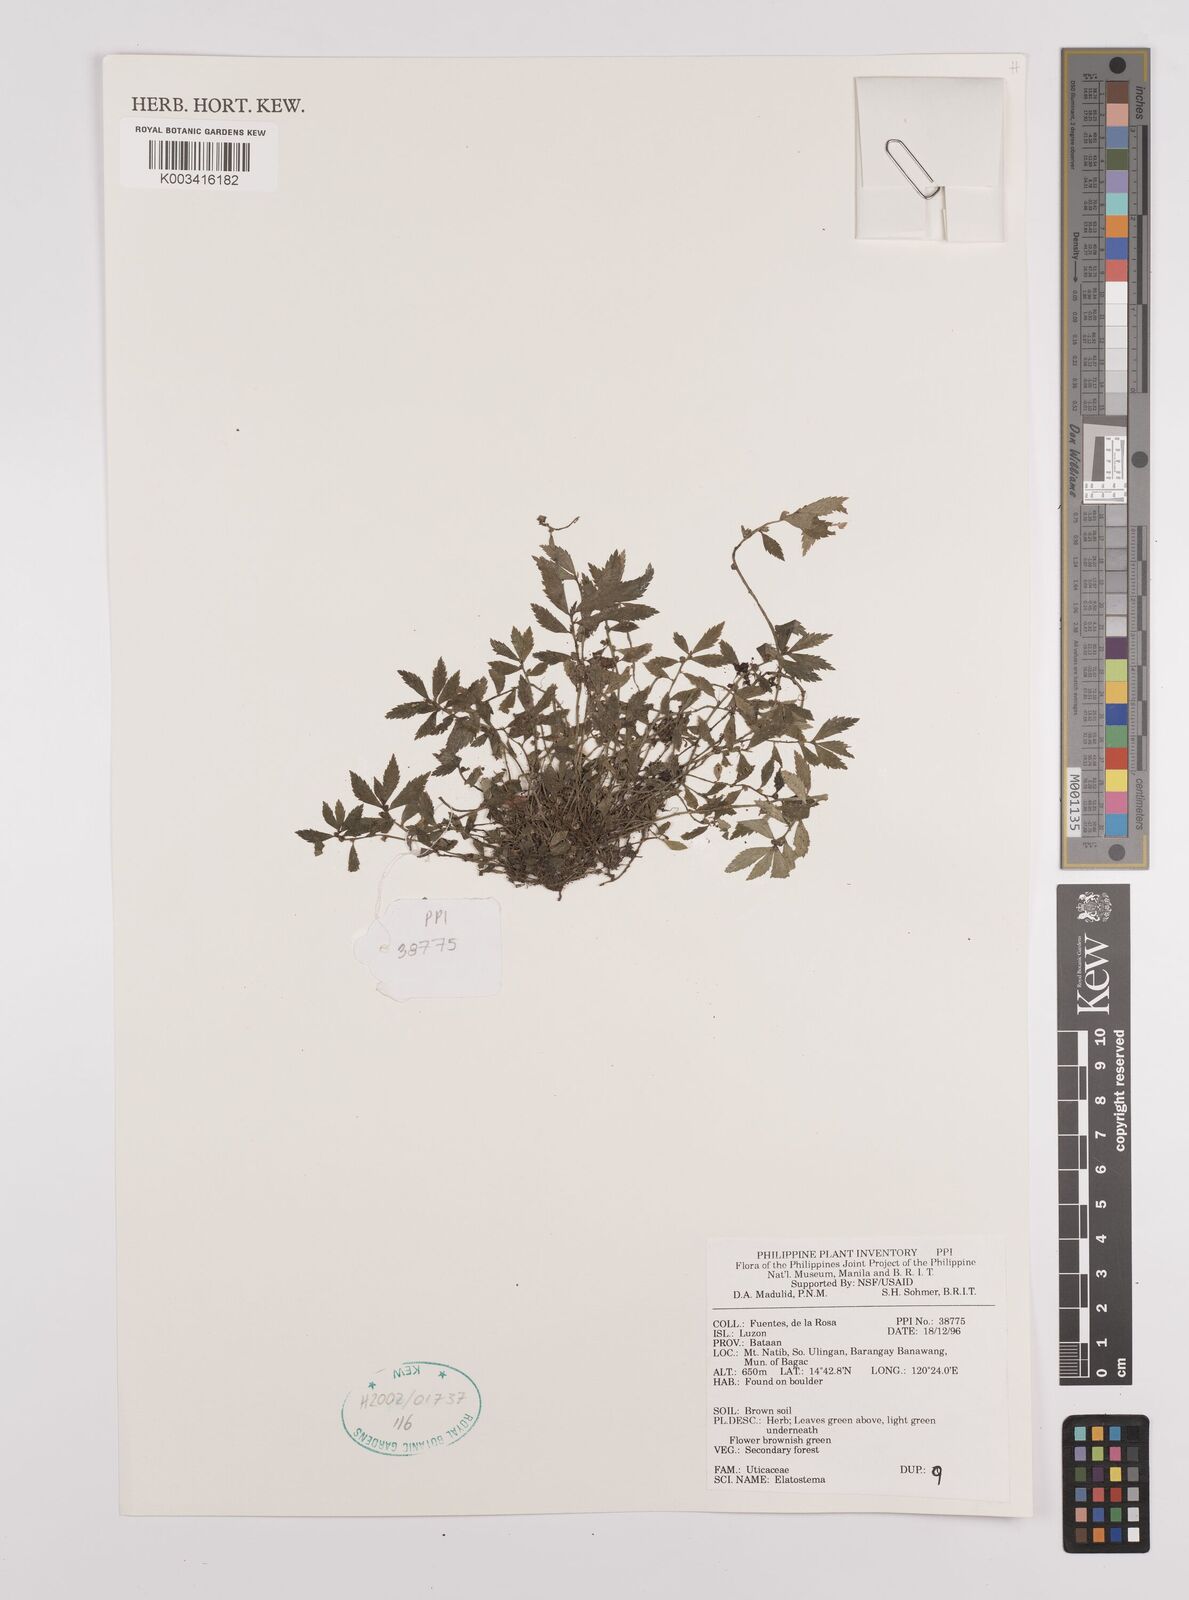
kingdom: Plantae
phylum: Tracheophyta
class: Magnoliopsida
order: Rosales
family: Urticaceae
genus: Elatostema
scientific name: Elatostema
